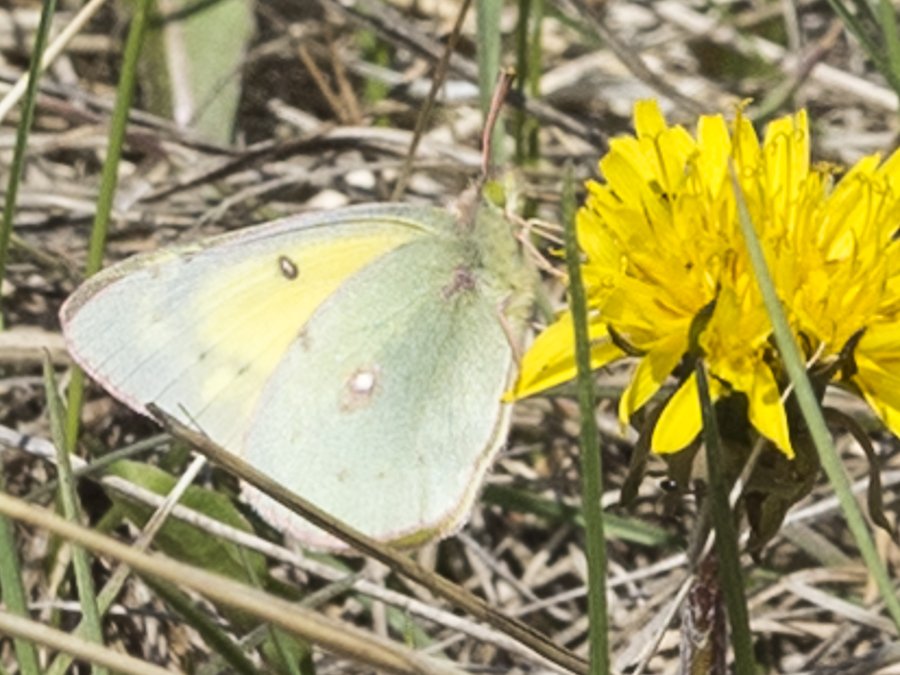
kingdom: Animalia
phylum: Arthropoda
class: Insecta
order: Lepidoptera
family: Pieridae
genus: Colias
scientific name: Colias philodice
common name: Clouded Sulphur
